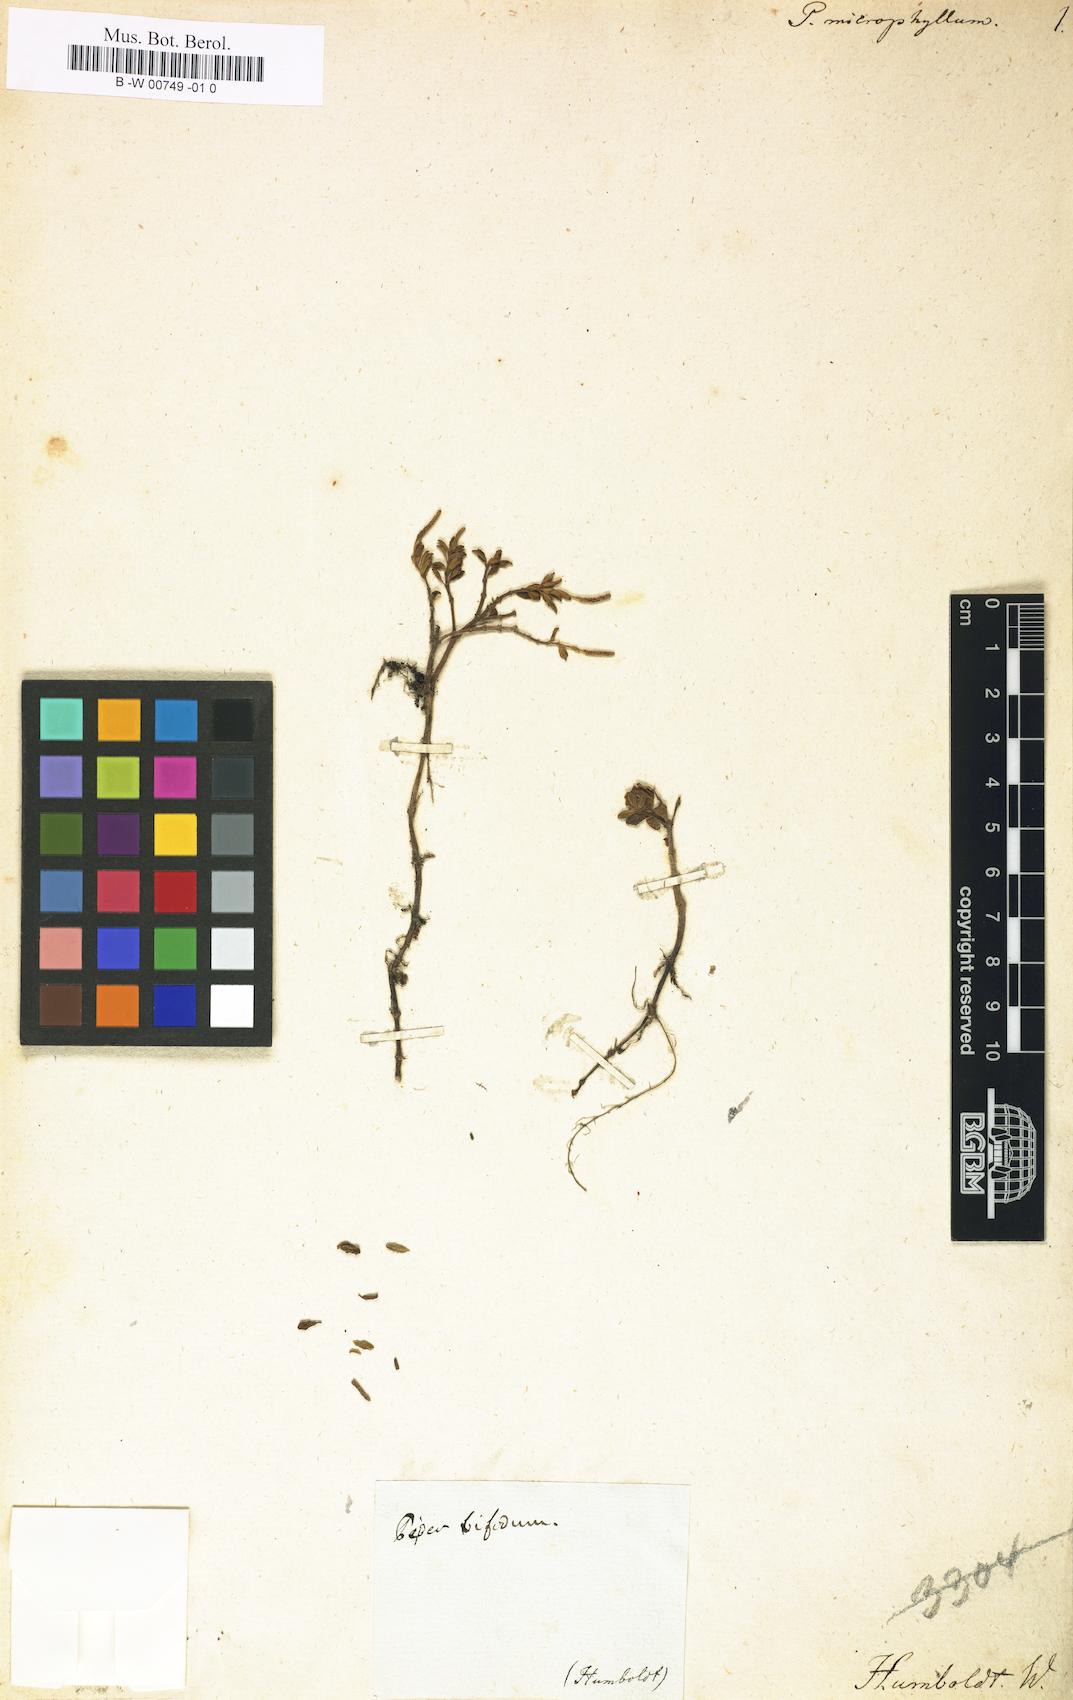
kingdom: Plantae
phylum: Tracheophyta
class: Magnoliopsida
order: Piperales
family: Piperaceae
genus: Peperomia
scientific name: Peperomia microphylla
